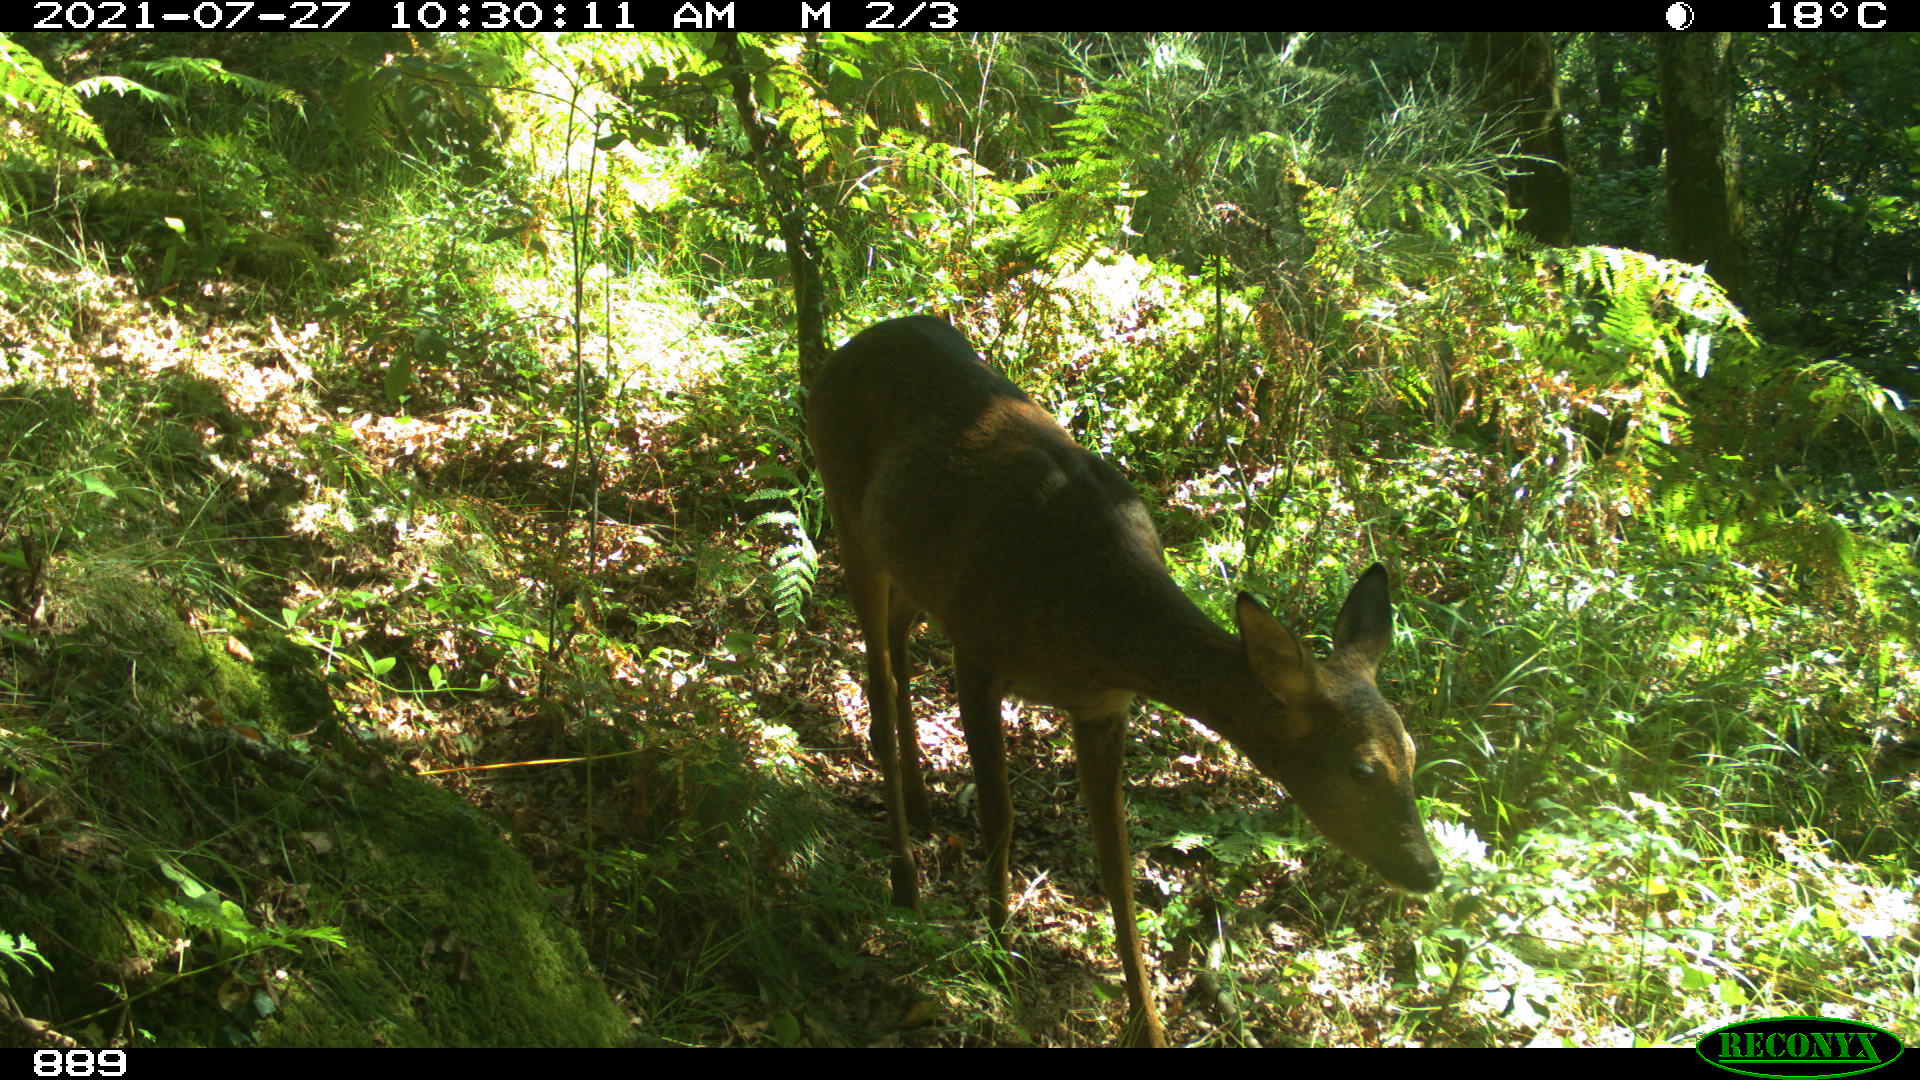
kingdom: Animalia
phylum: Chordata
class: Mammalia
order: Artiodactyla
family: Cervidae
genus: Capreolus
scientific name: Capreolus capreolus
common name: Western roe deer
